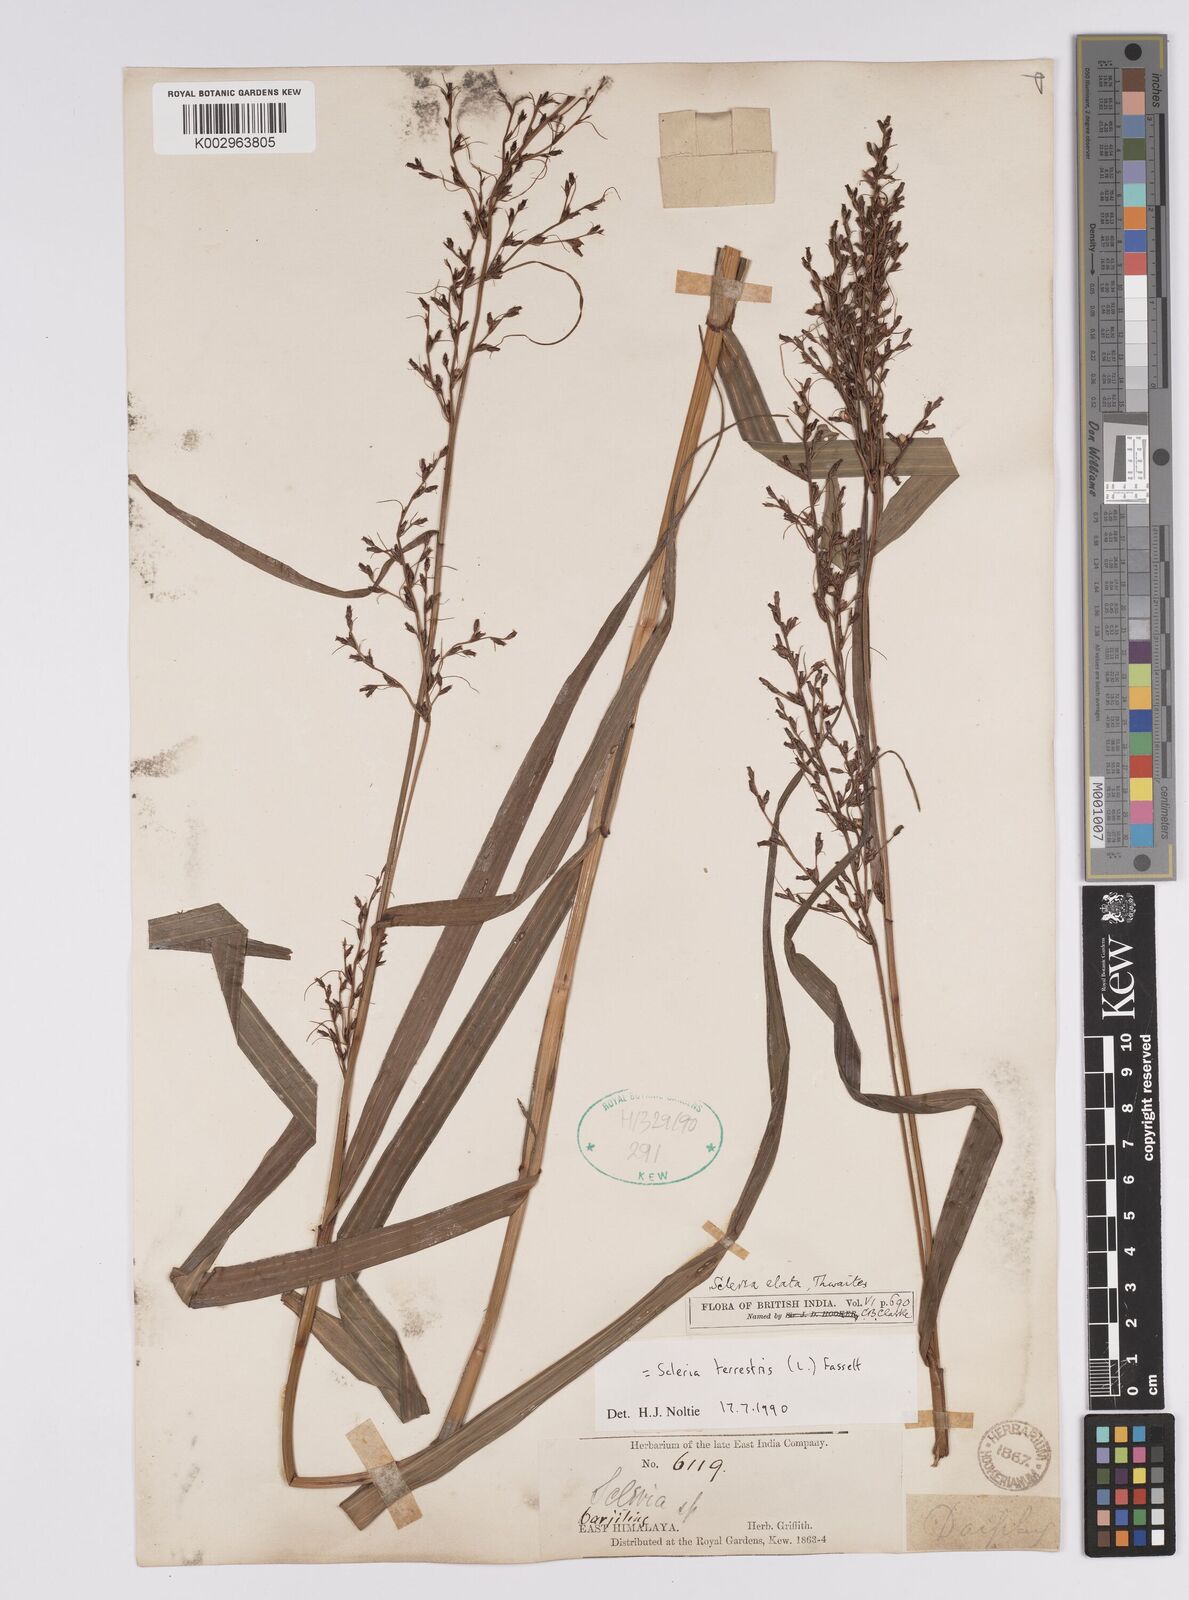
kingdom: Plantae
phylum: Tracheophyta
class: Liliopsida
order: Poales
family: Cyperaceae
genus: Scleria
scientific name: Scleria terrestris
